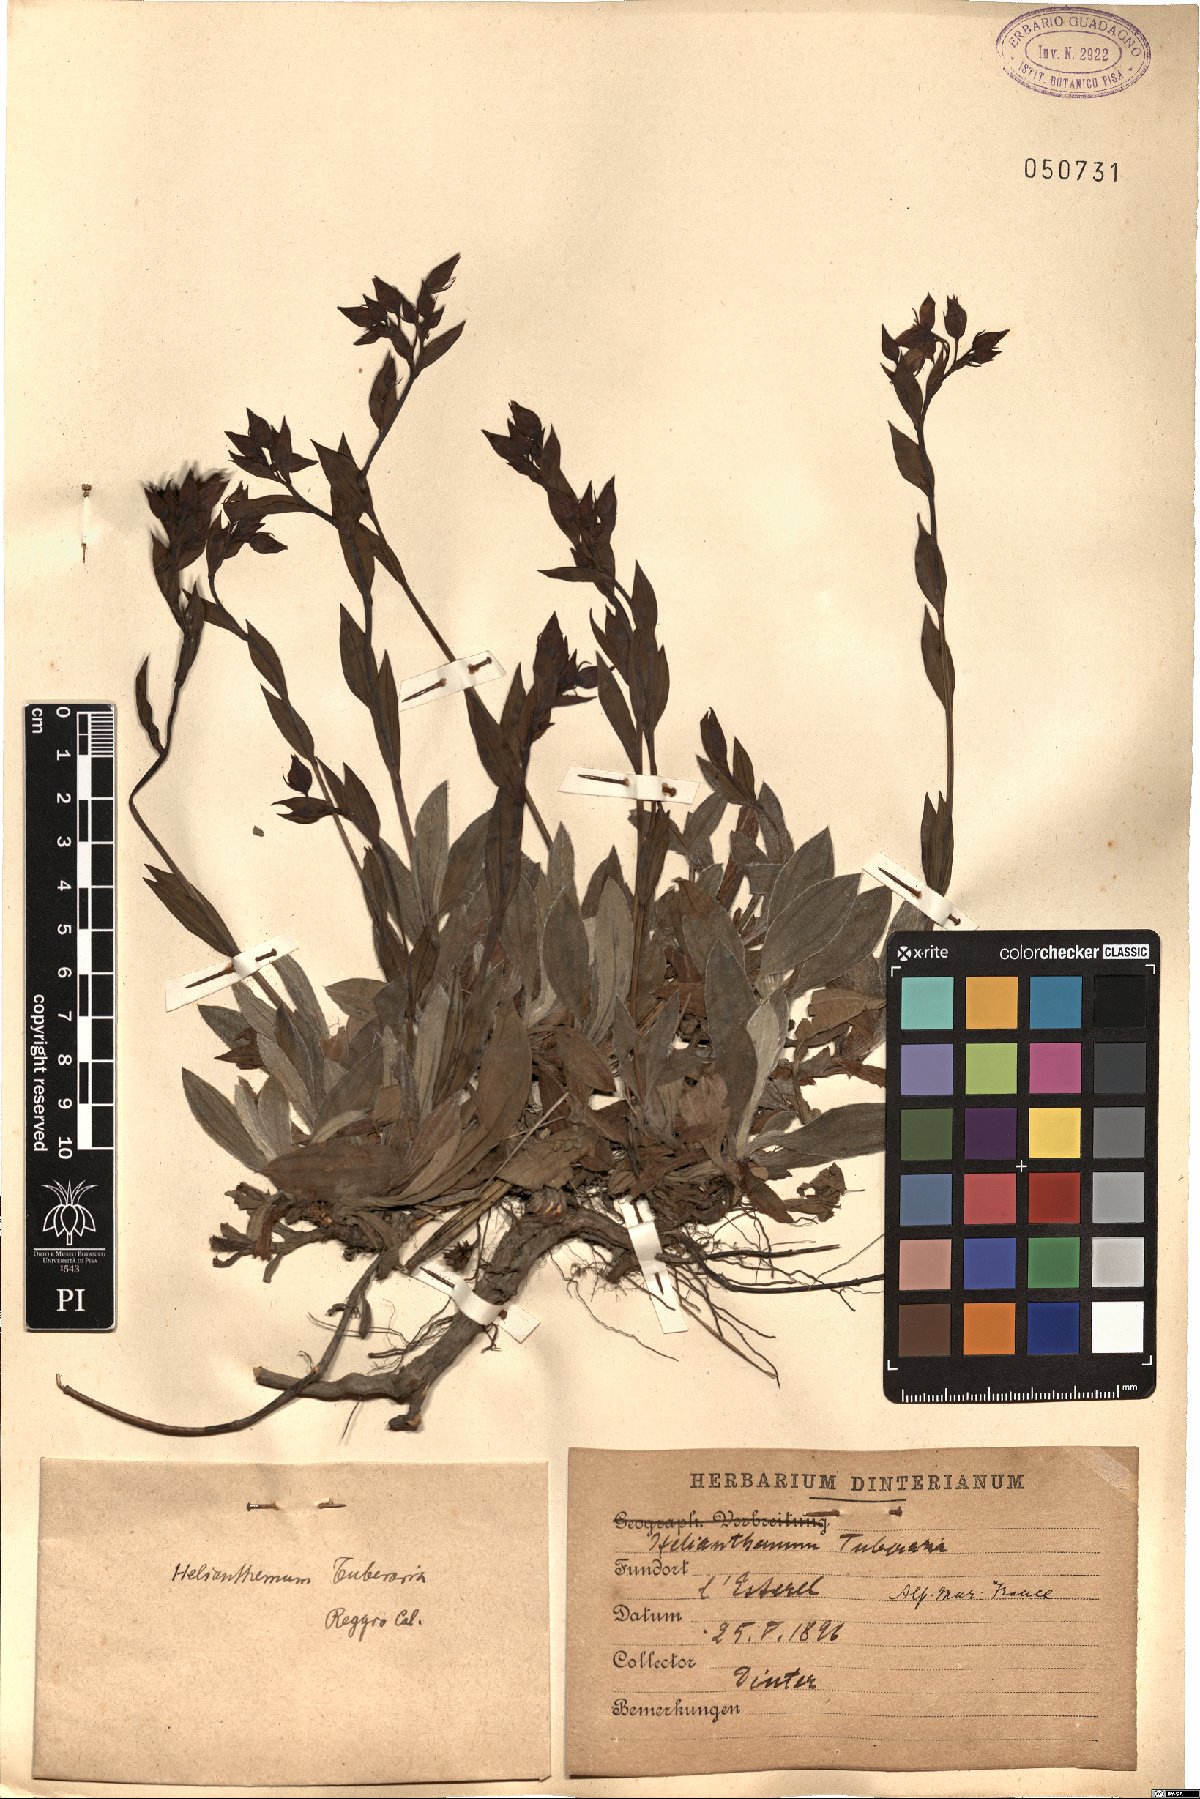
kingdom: Plantae
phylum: Tracheophyta
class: Magnoliopsida
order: Malvales
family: Cistaceae
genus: Tuberaria
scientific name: Tuberaria lignosa
